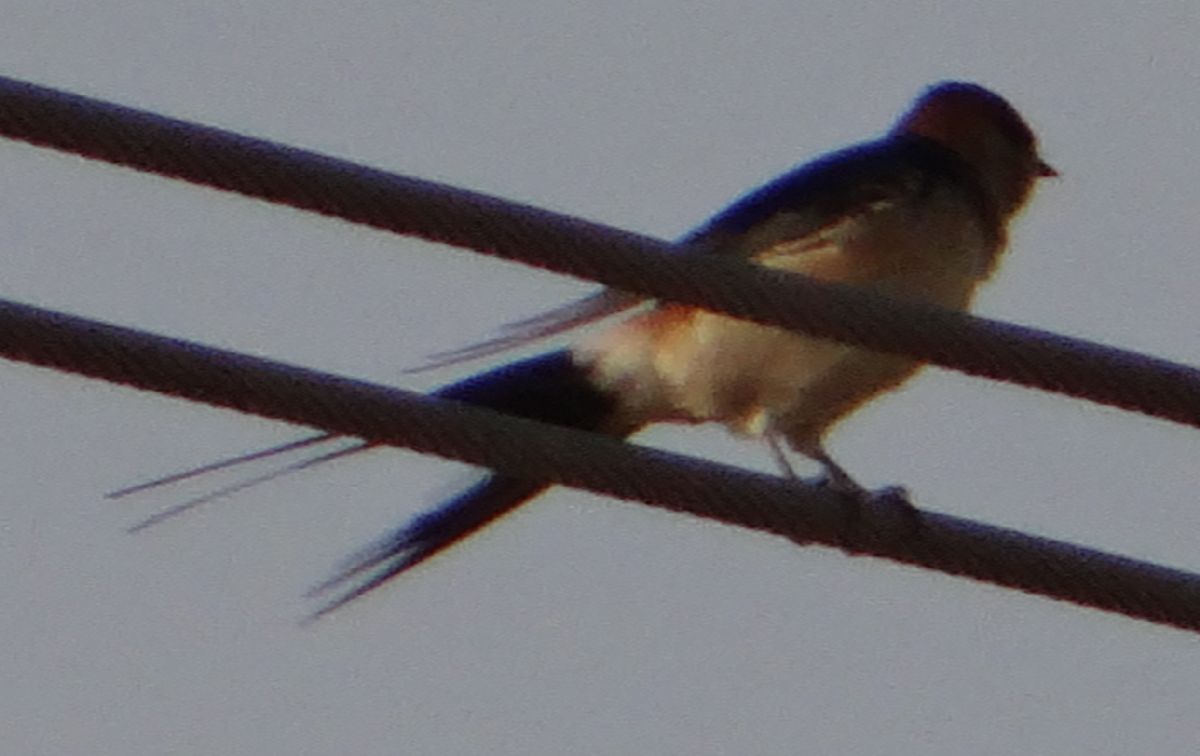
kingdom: Animalia
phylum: Chordata
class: Aves
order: Passeriformes
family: Hirundinidae
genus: Cecropis
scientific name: Cecropis daurica
